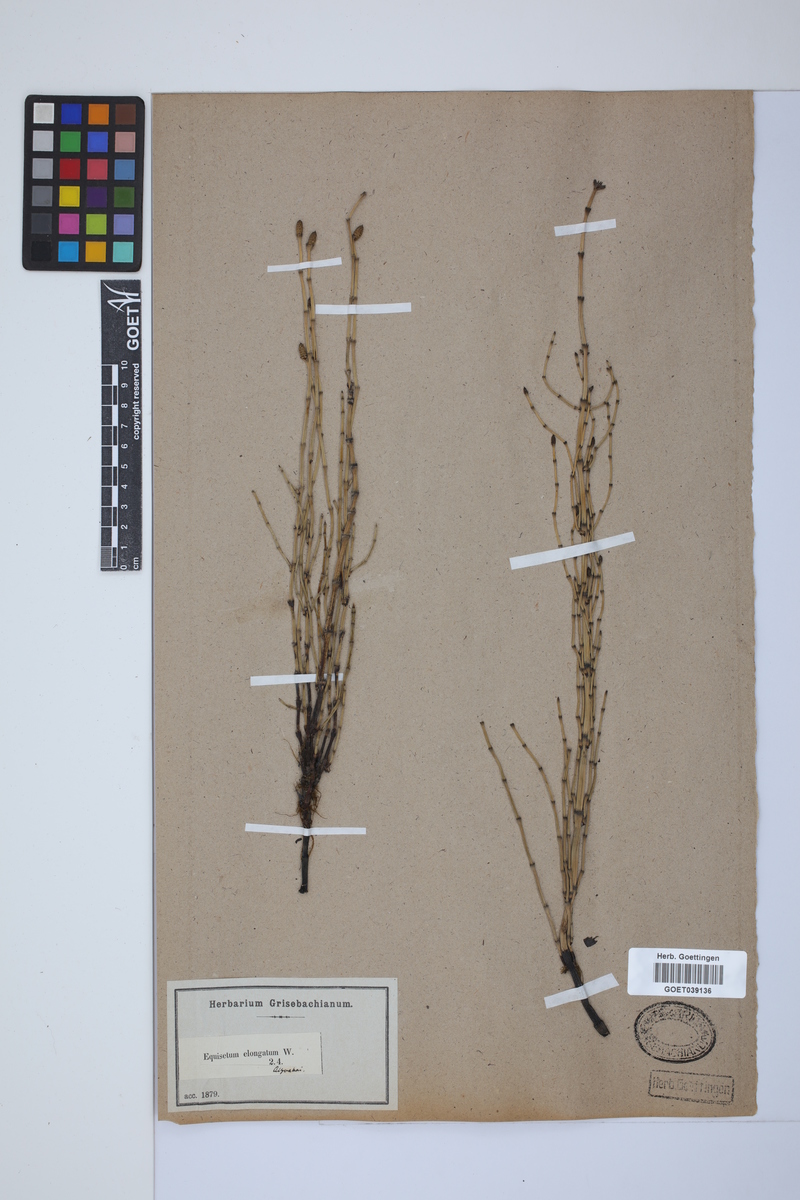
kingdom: Plantae
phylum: Tracheophyta
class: Polypodiopsida
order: Equisetales
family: Equisetaceae
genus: Equisetum
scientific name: Equisetum giganteum
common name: Giant horsetail
